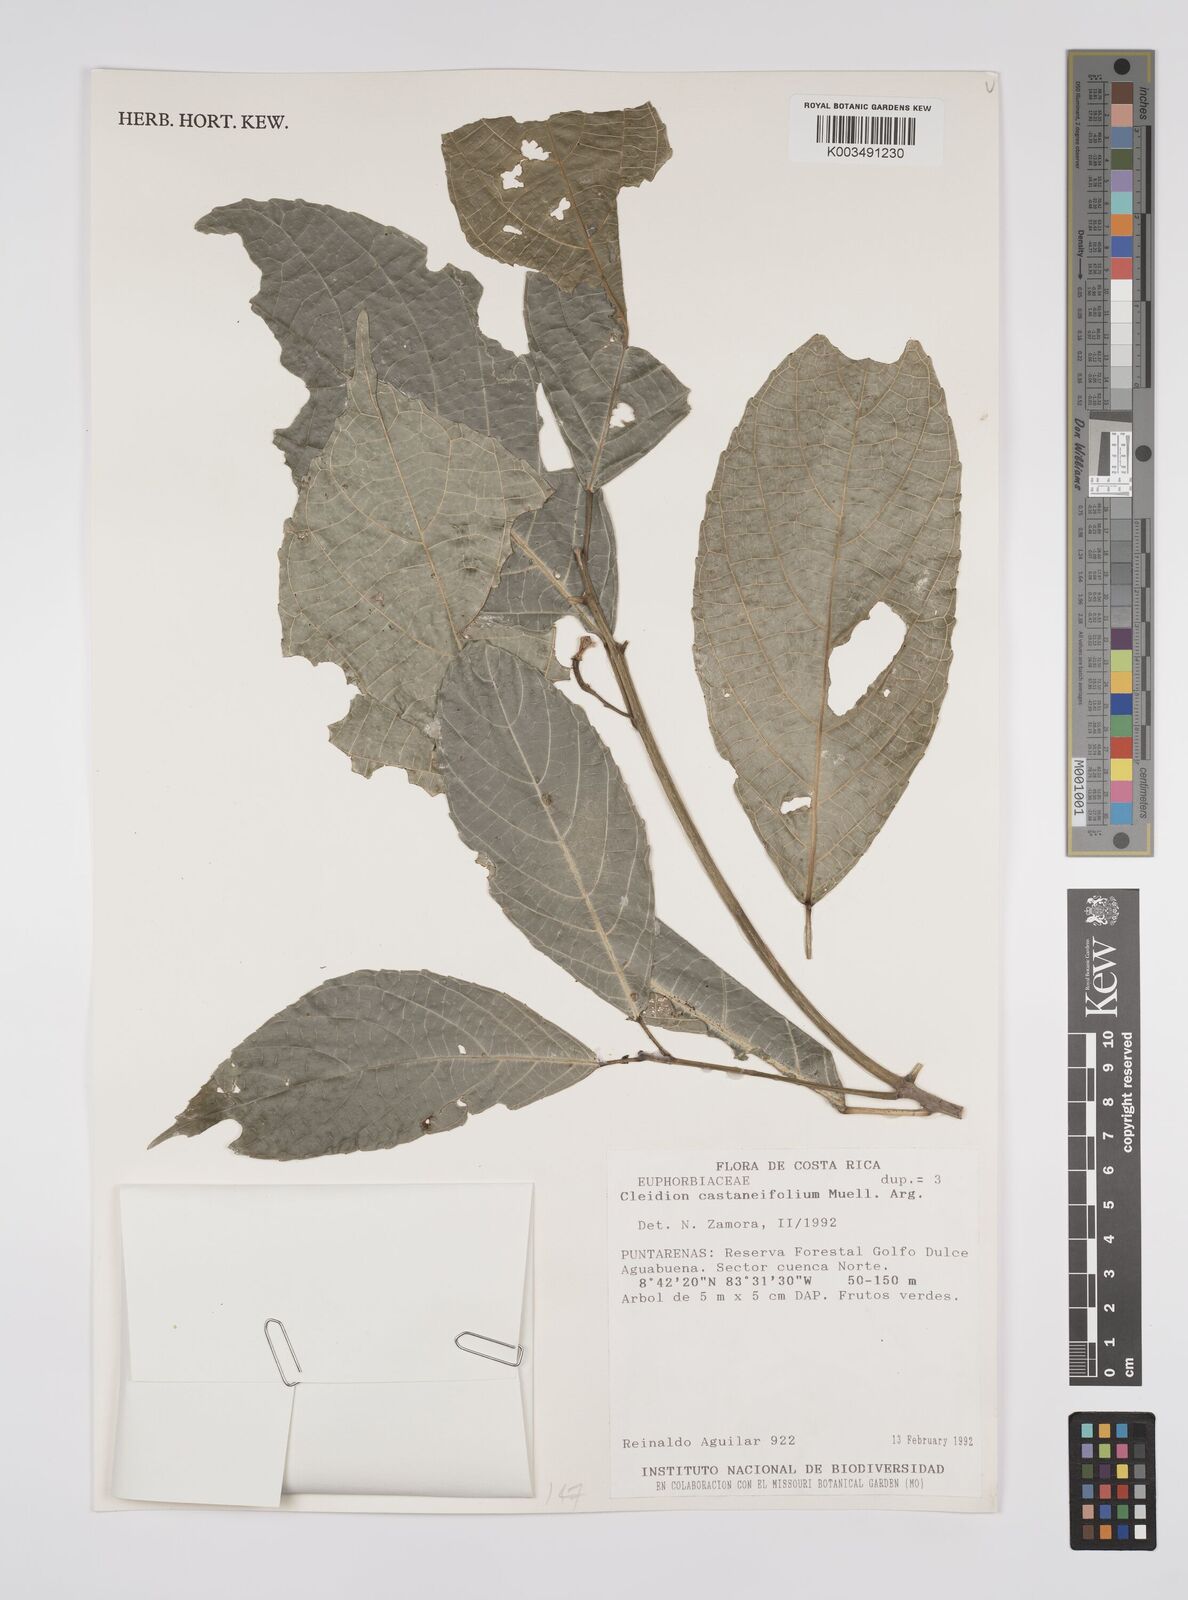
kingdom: Plantae
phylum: Tracheophyta
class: Magnoliopsida
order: Malpighiales
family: Euphorbiaceae
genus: Cleidion
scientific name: Cleidion castaneifolium
